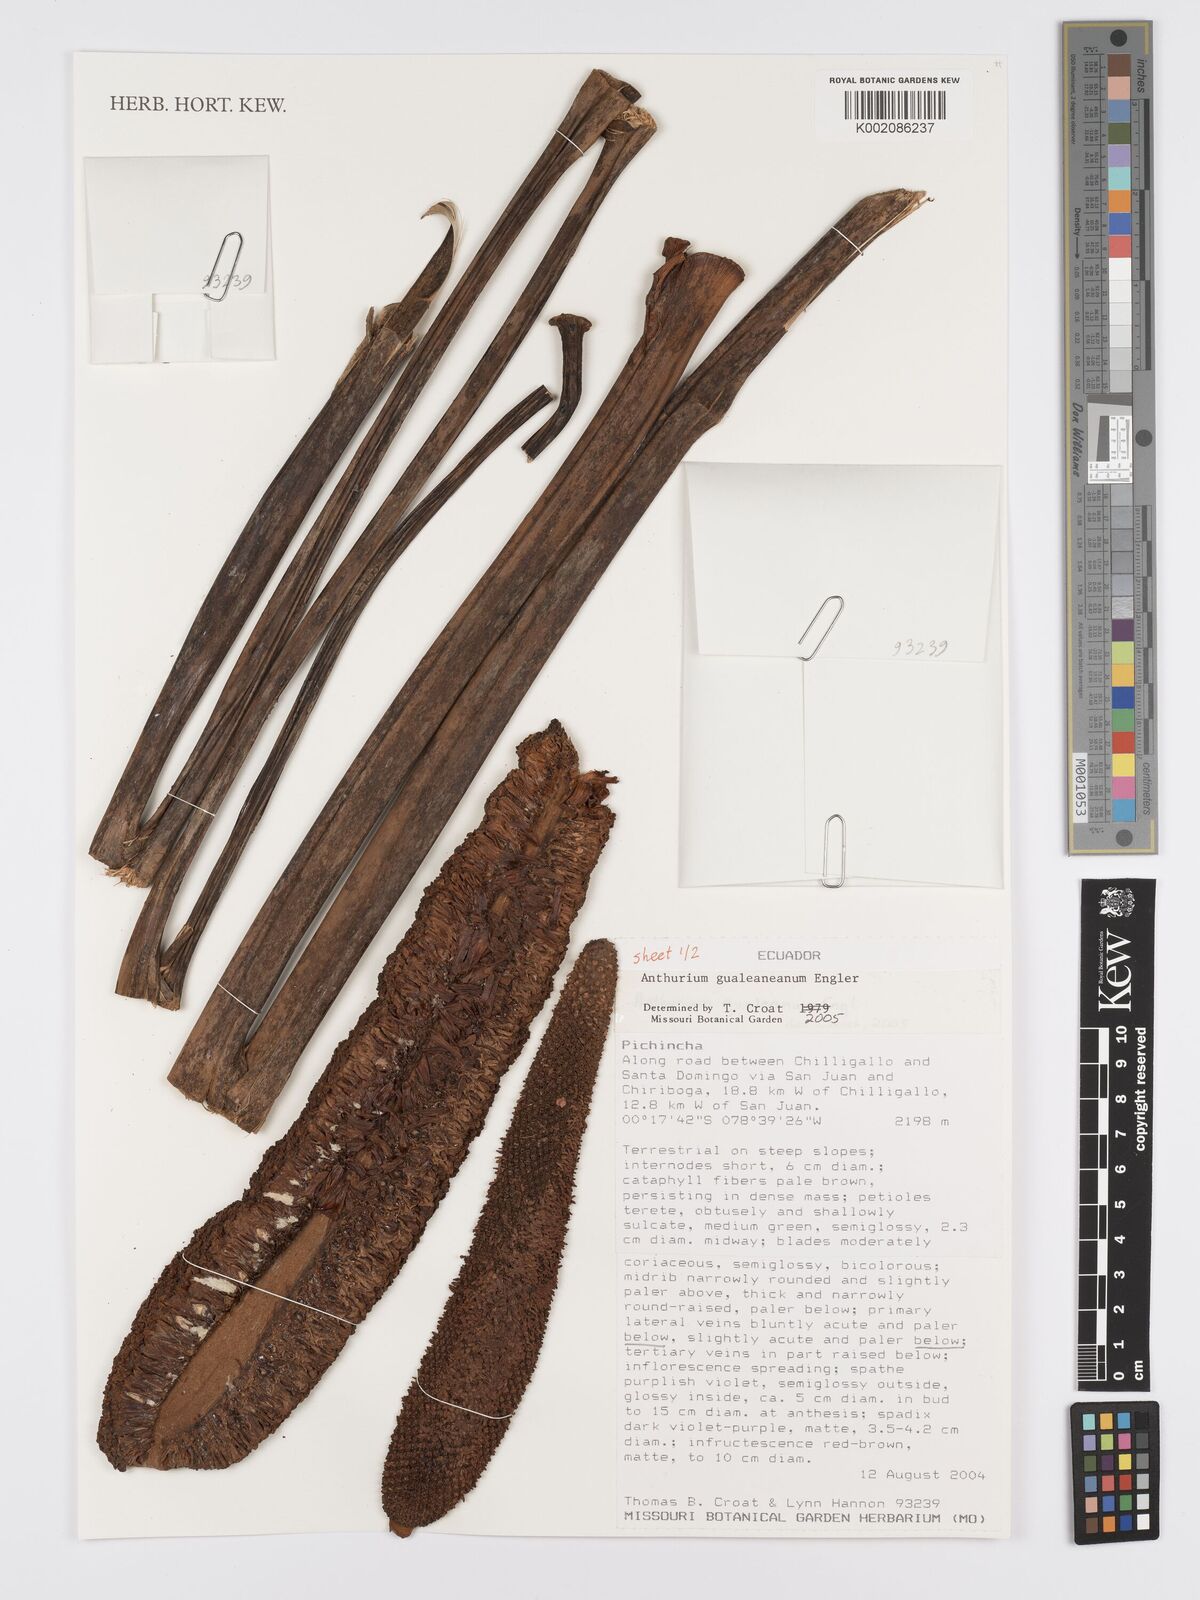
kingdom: Plantae
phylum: Tracheophyta
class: Liliopsida
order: Alismatales
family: Araceae
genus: Anthurium
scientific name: Anthurium gualeanum
